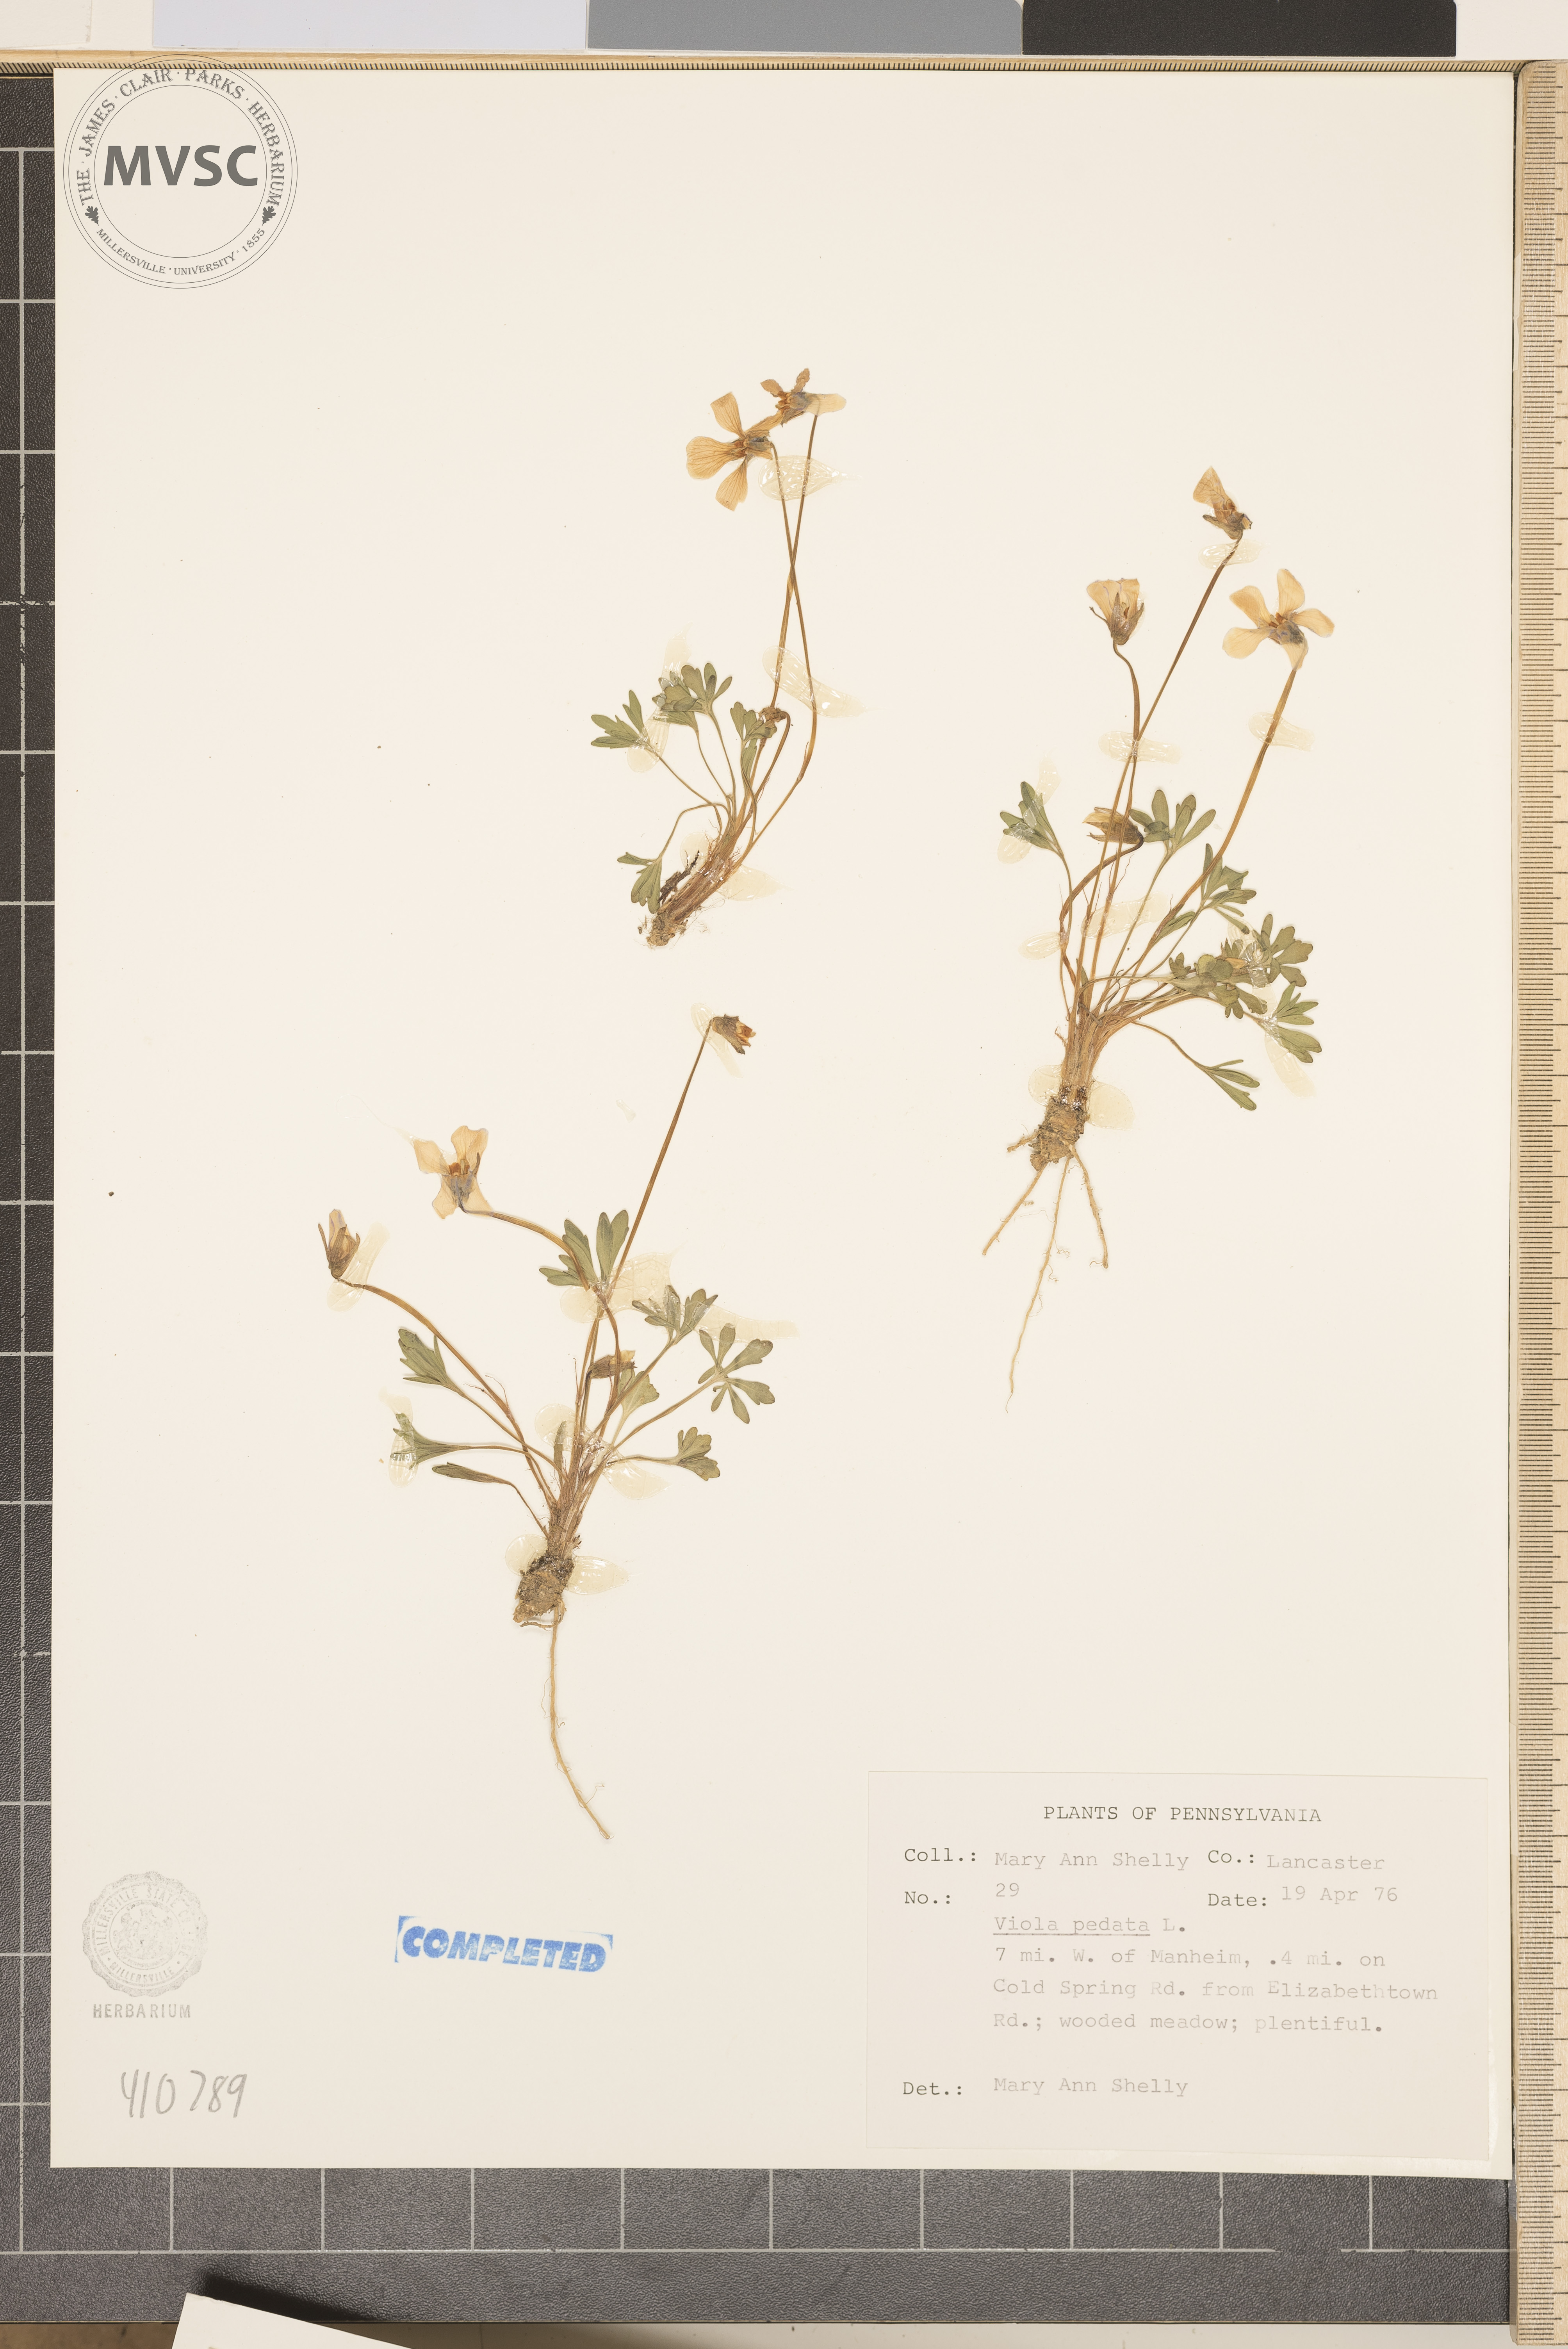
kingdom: Plantae
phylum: Tracheophyta
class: Magnoliopsida
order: Malpighiales
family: Violaceae
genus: Viola
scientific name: Viola pedata
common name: Pansy violet
